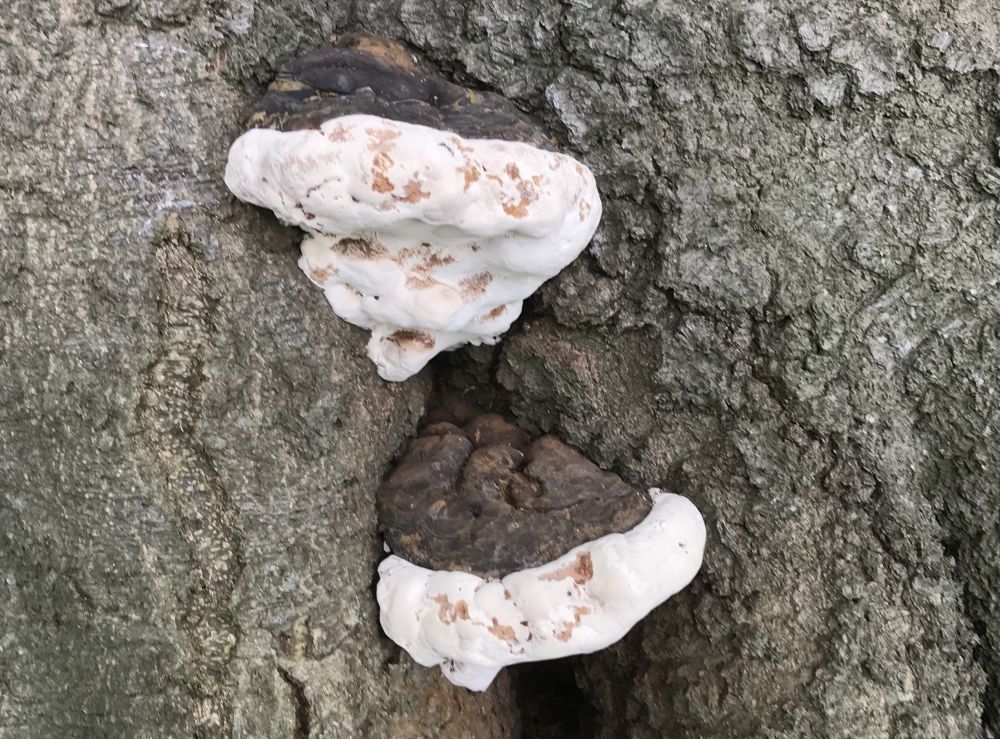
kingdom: Fungi
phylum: Basidiomycota
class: Agaricomycetes
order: Polyporales
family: Polyporaceae
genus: Ganoderma
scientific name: Ganoderma pfeifferi
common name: kobberrød lakporesvamp
